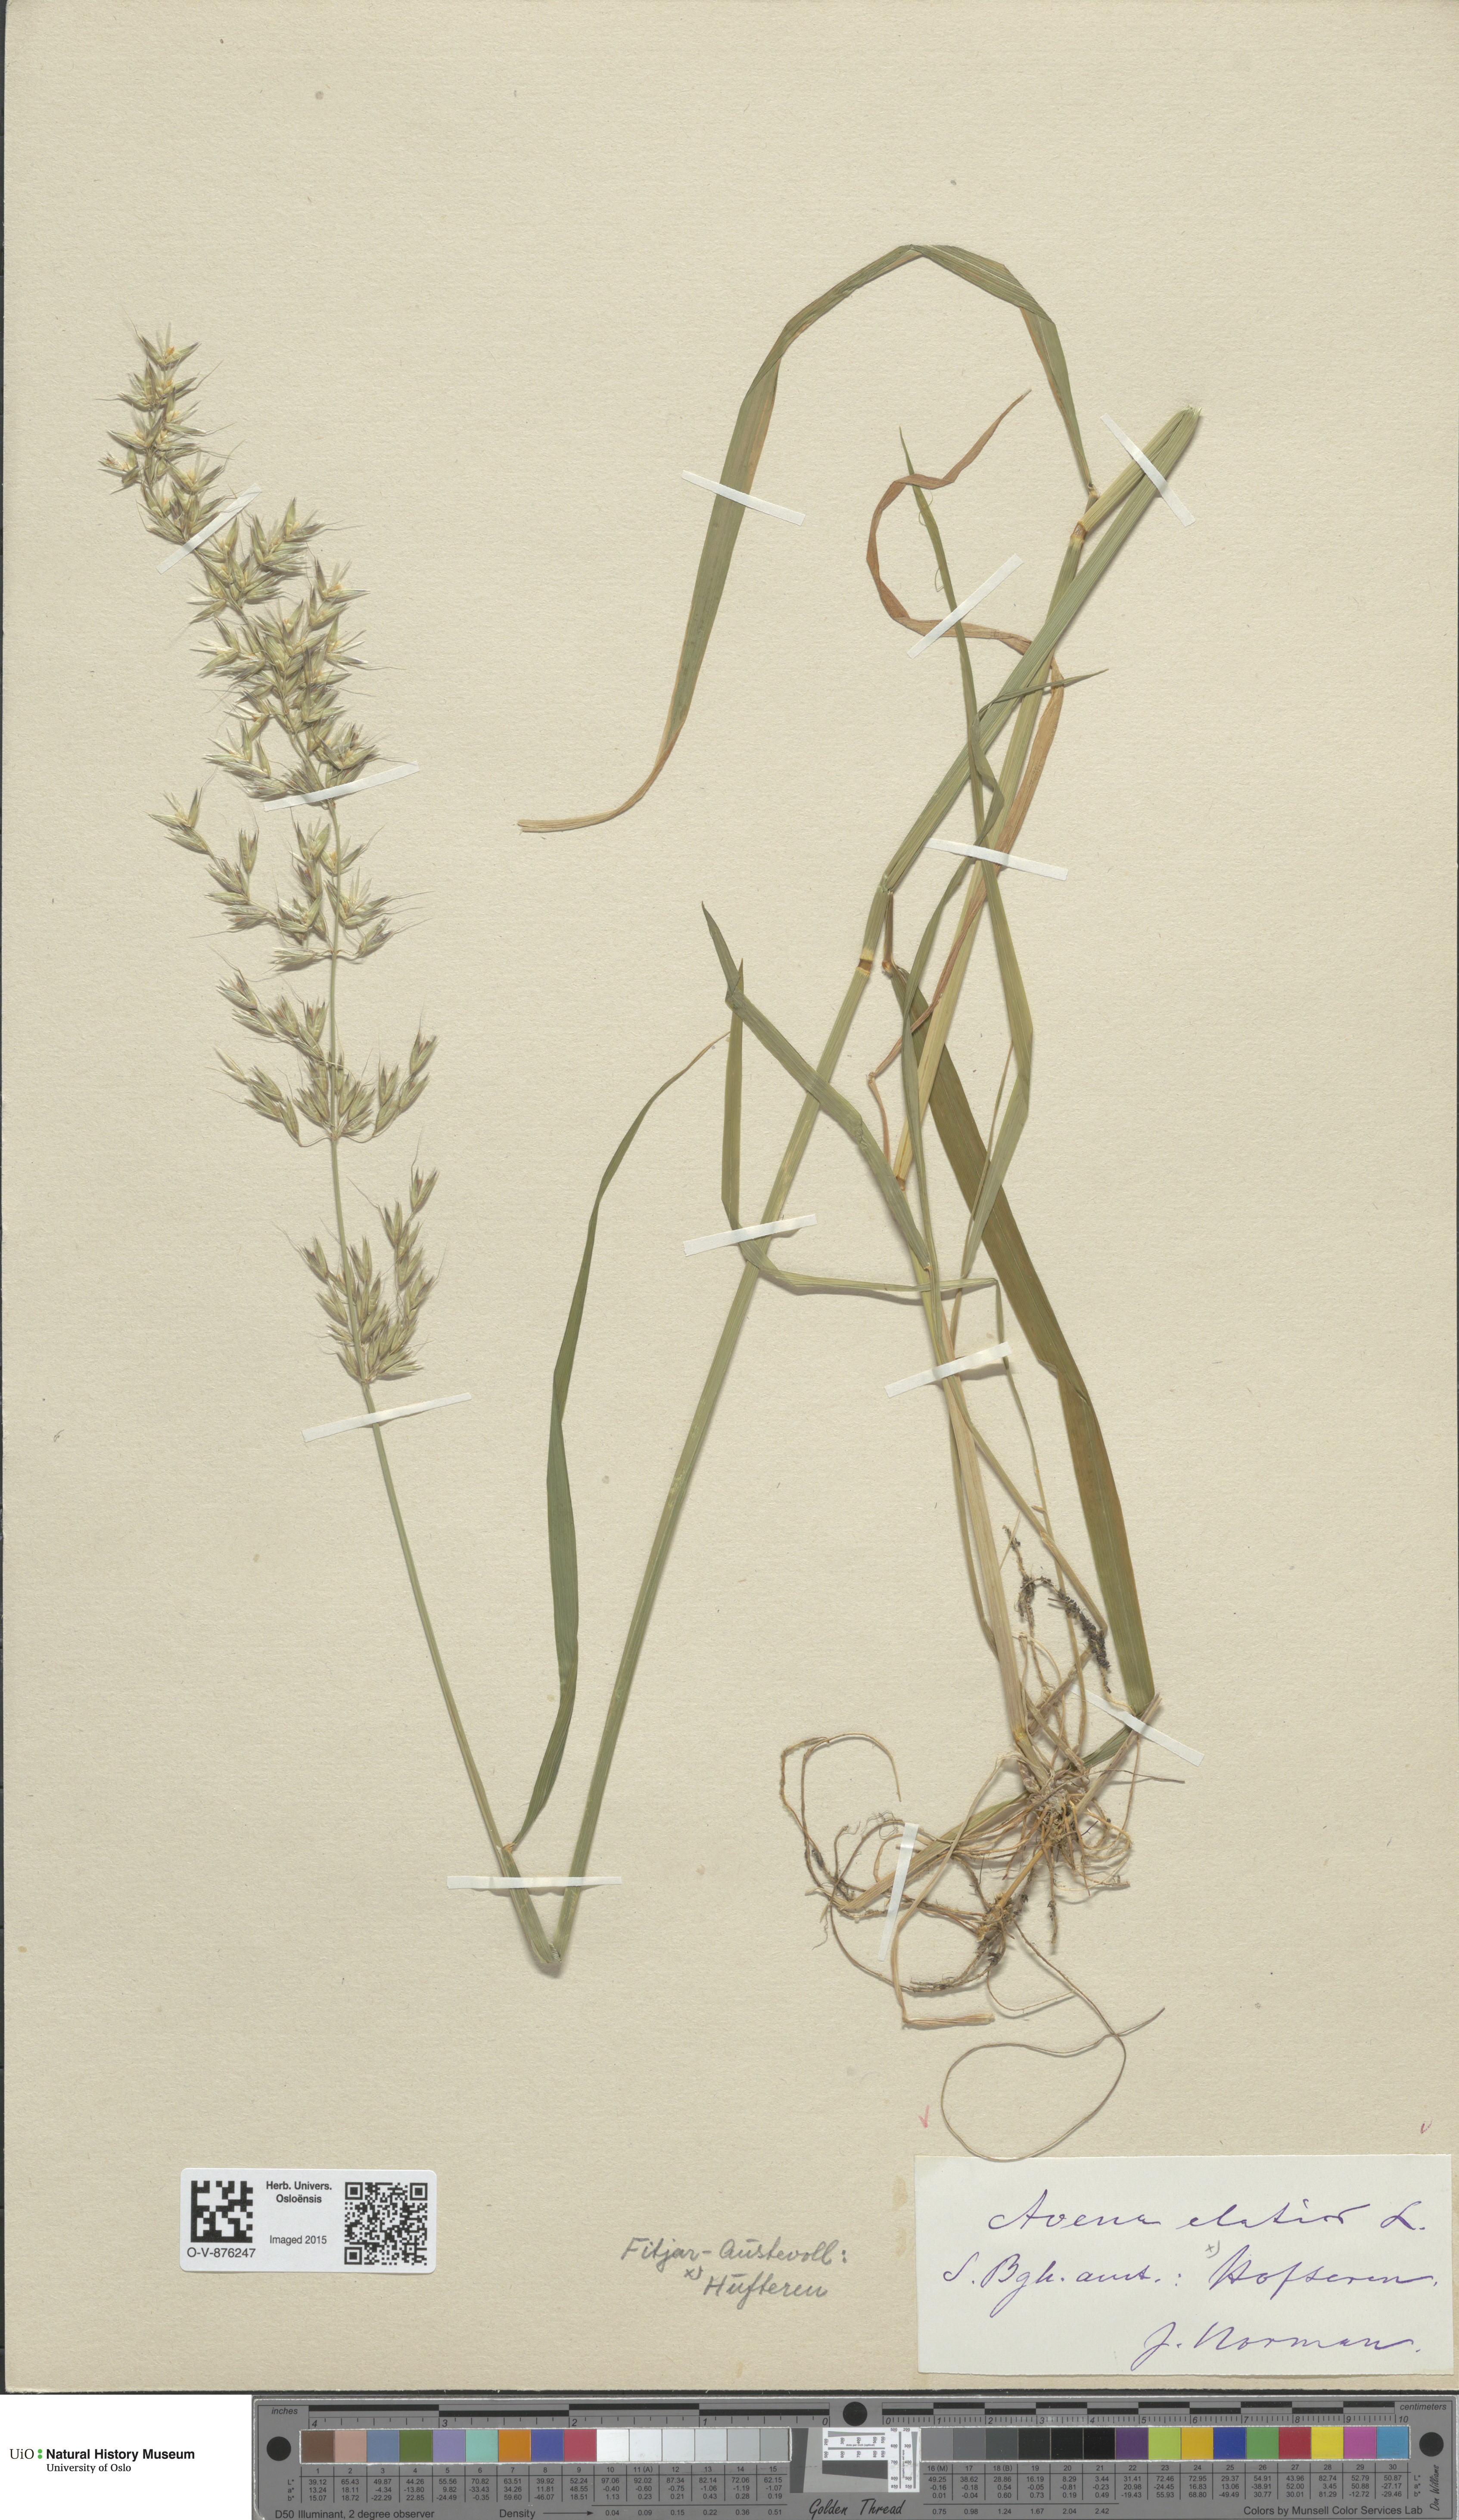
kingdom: Plantae
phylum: Tracheophyta
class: Liliopsida
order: Poales
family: Poaceae
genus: Arrhenatherum
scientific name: Arrhenatherum elatius
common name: Tall oatgrass
